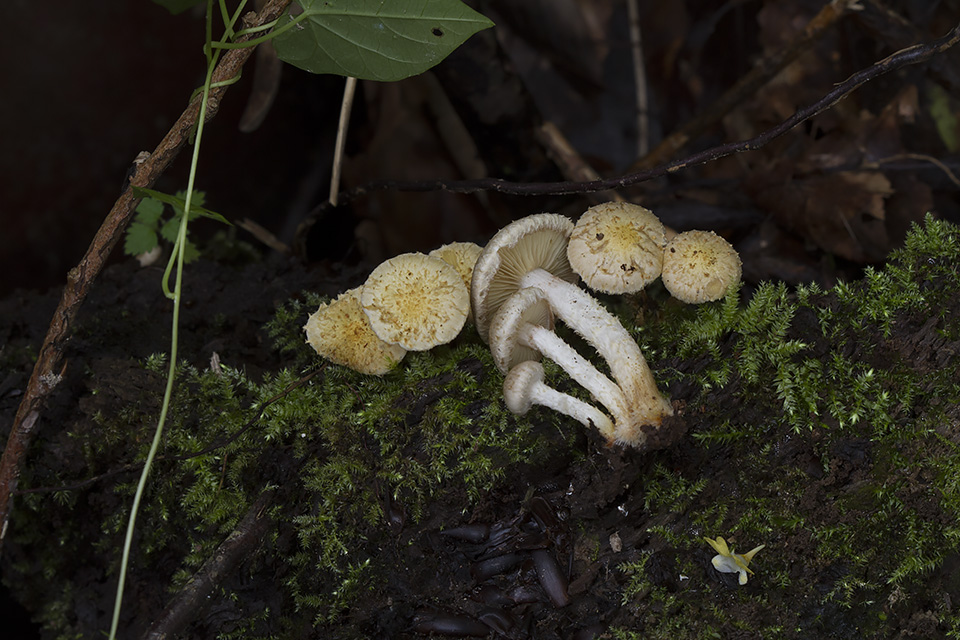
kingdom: Fungi
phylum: Basidiomycota
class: Agaricomycetes
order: Agaricales
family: Strophariaceae
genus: Pholiota
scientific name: Pholiota gummosa
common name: grøngul skælhat
